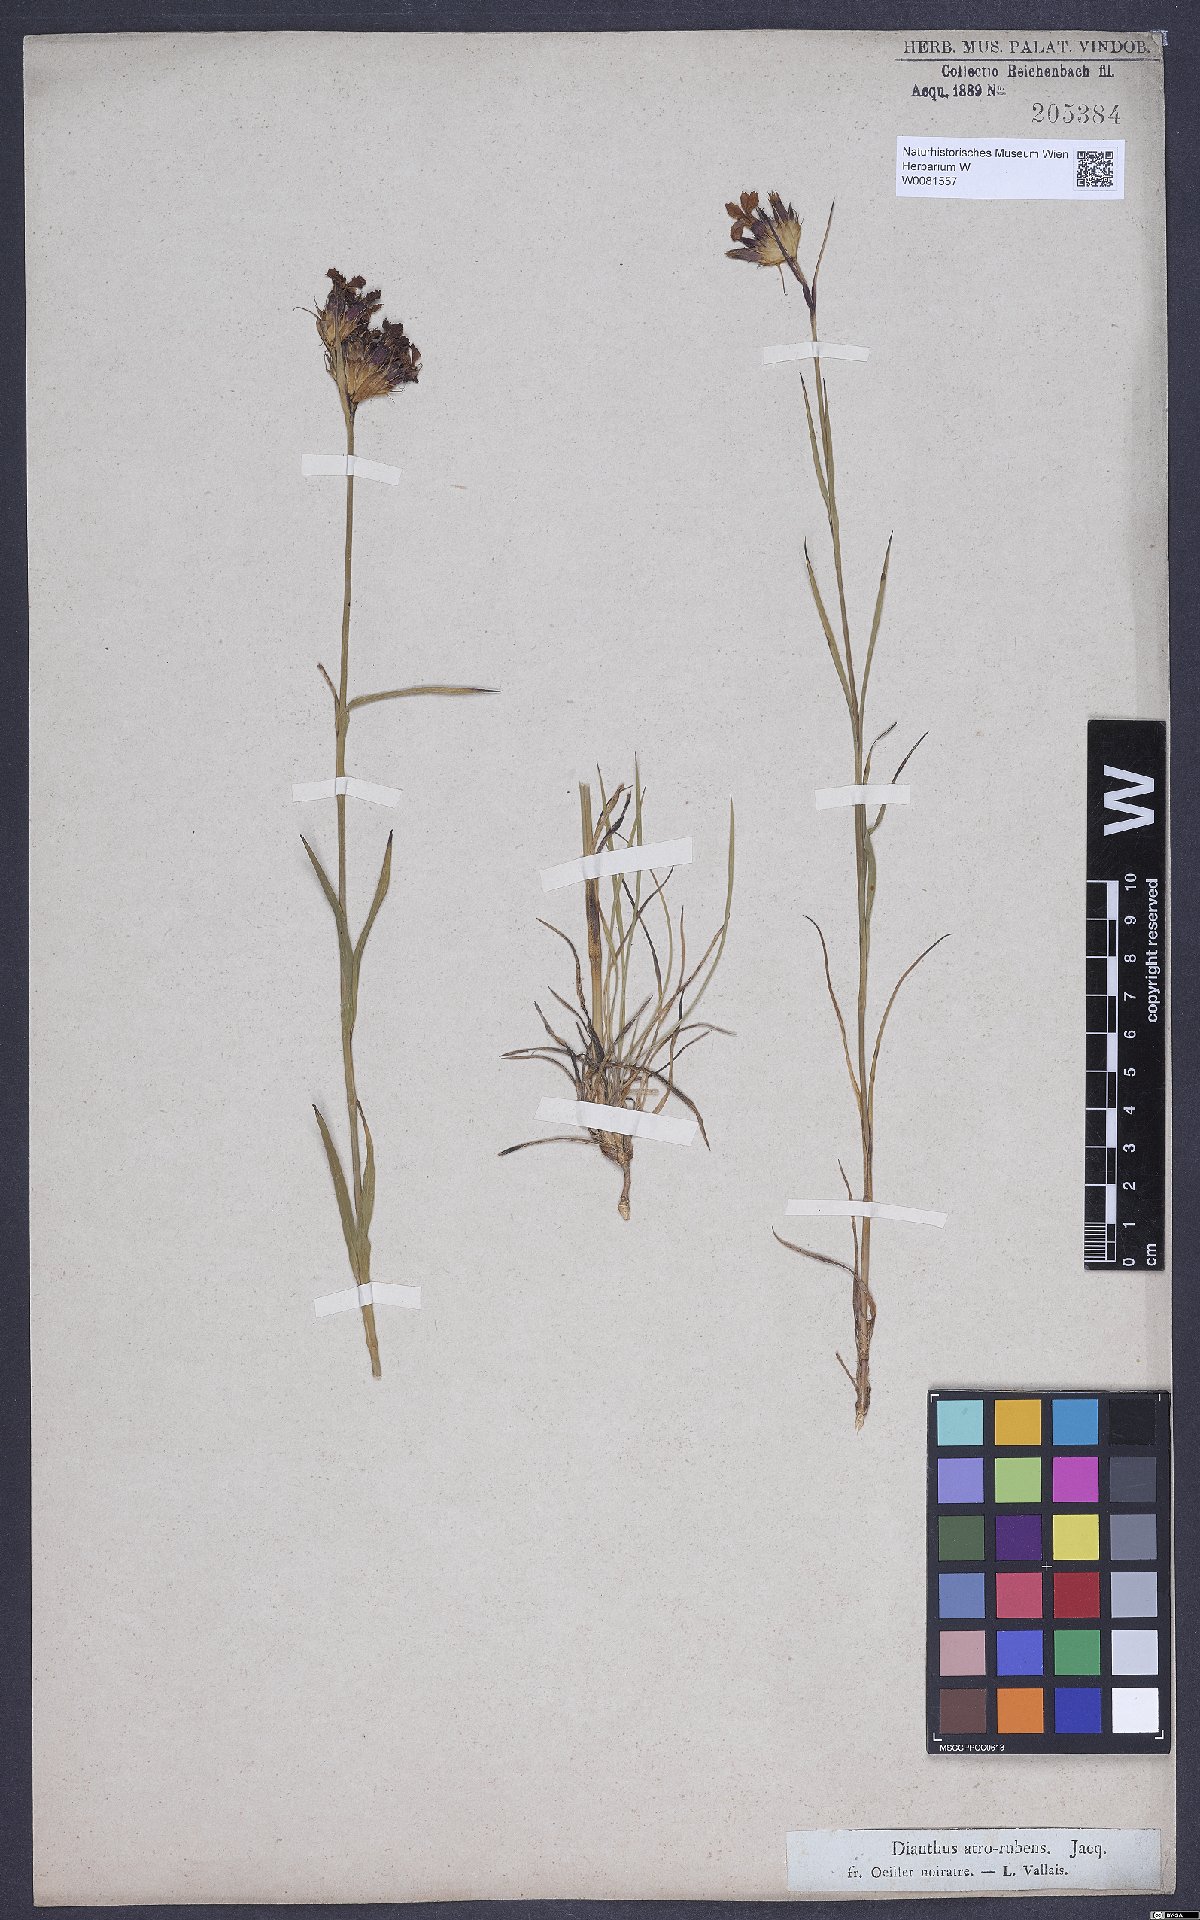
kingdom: Plantae
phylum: Tracheophyta
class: Magnoliopsida
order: Caryophyllales
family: Caryophyllaceae
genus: Dianthus
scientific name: Dianthus carthusianorum
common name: Carthusian pink
